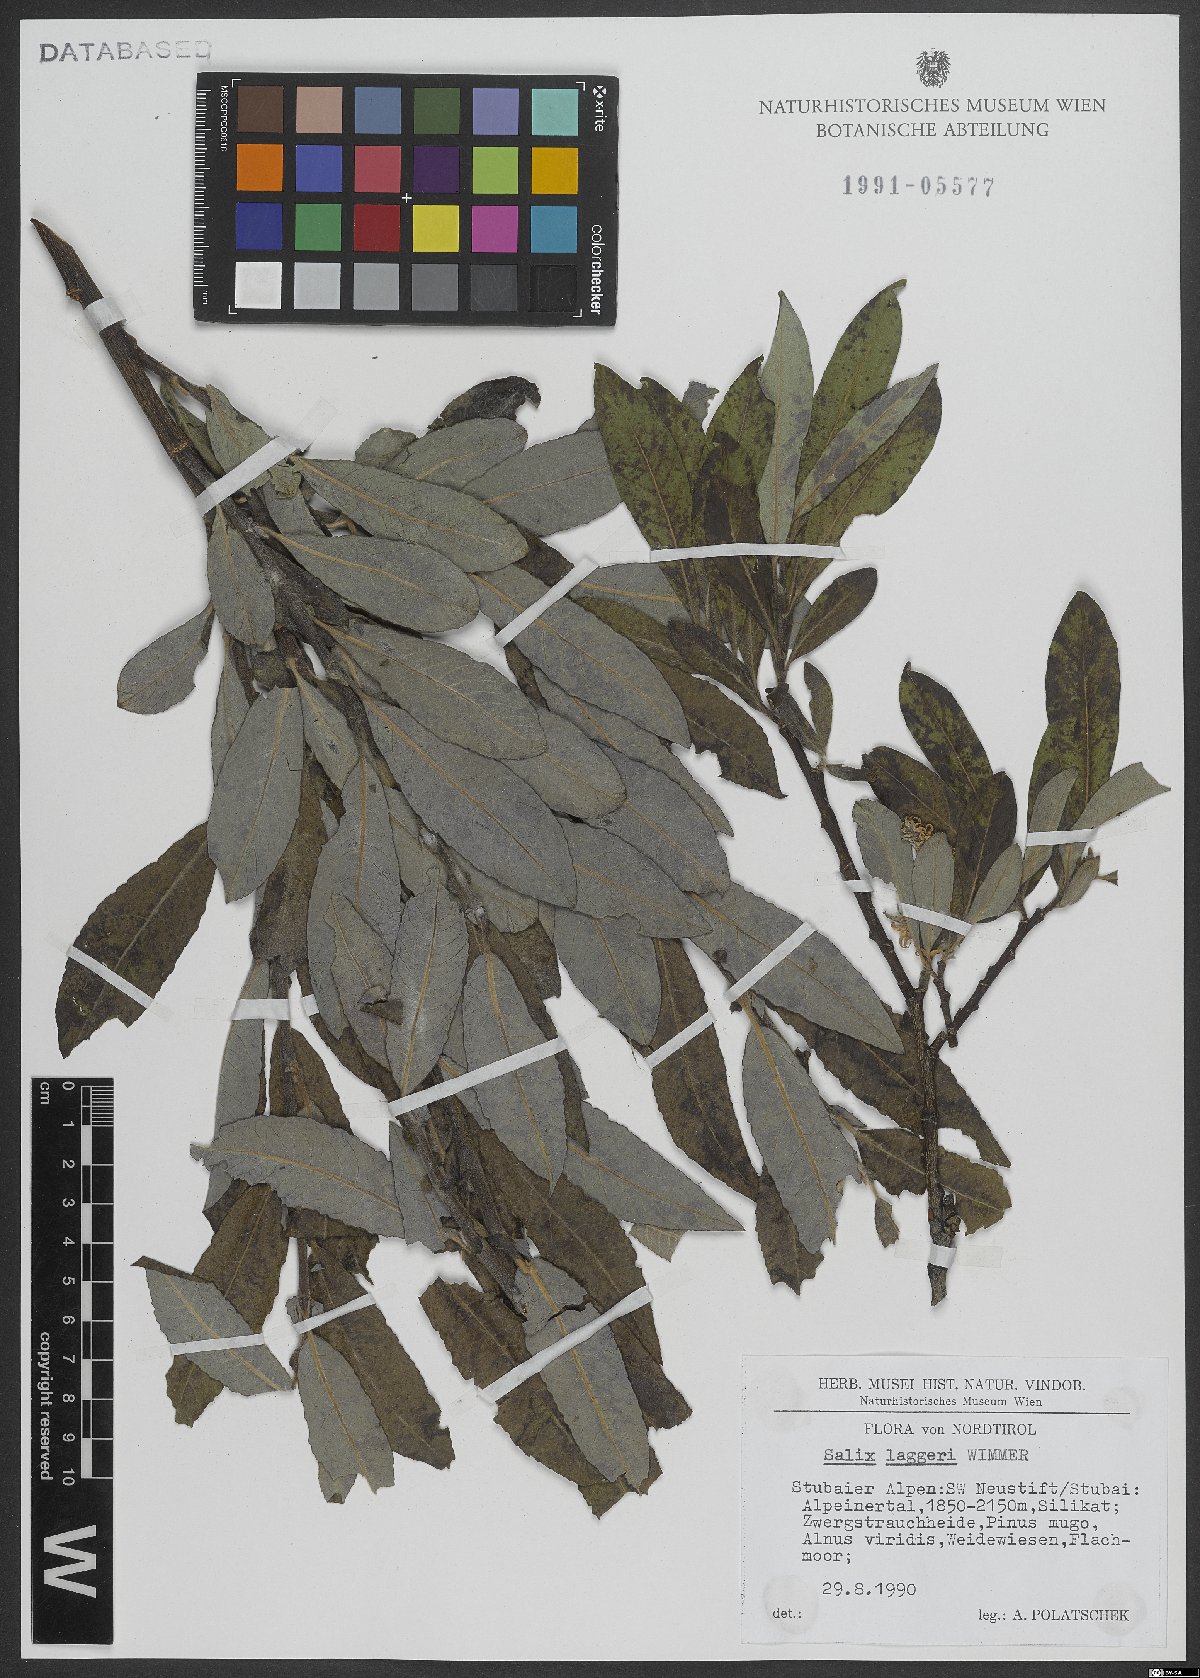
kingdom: Plantae
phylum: Tracheophyta
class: Magnoliopsida
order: Malpighiales
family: Salicaceae
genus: Salix
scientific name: Salix laggeri
